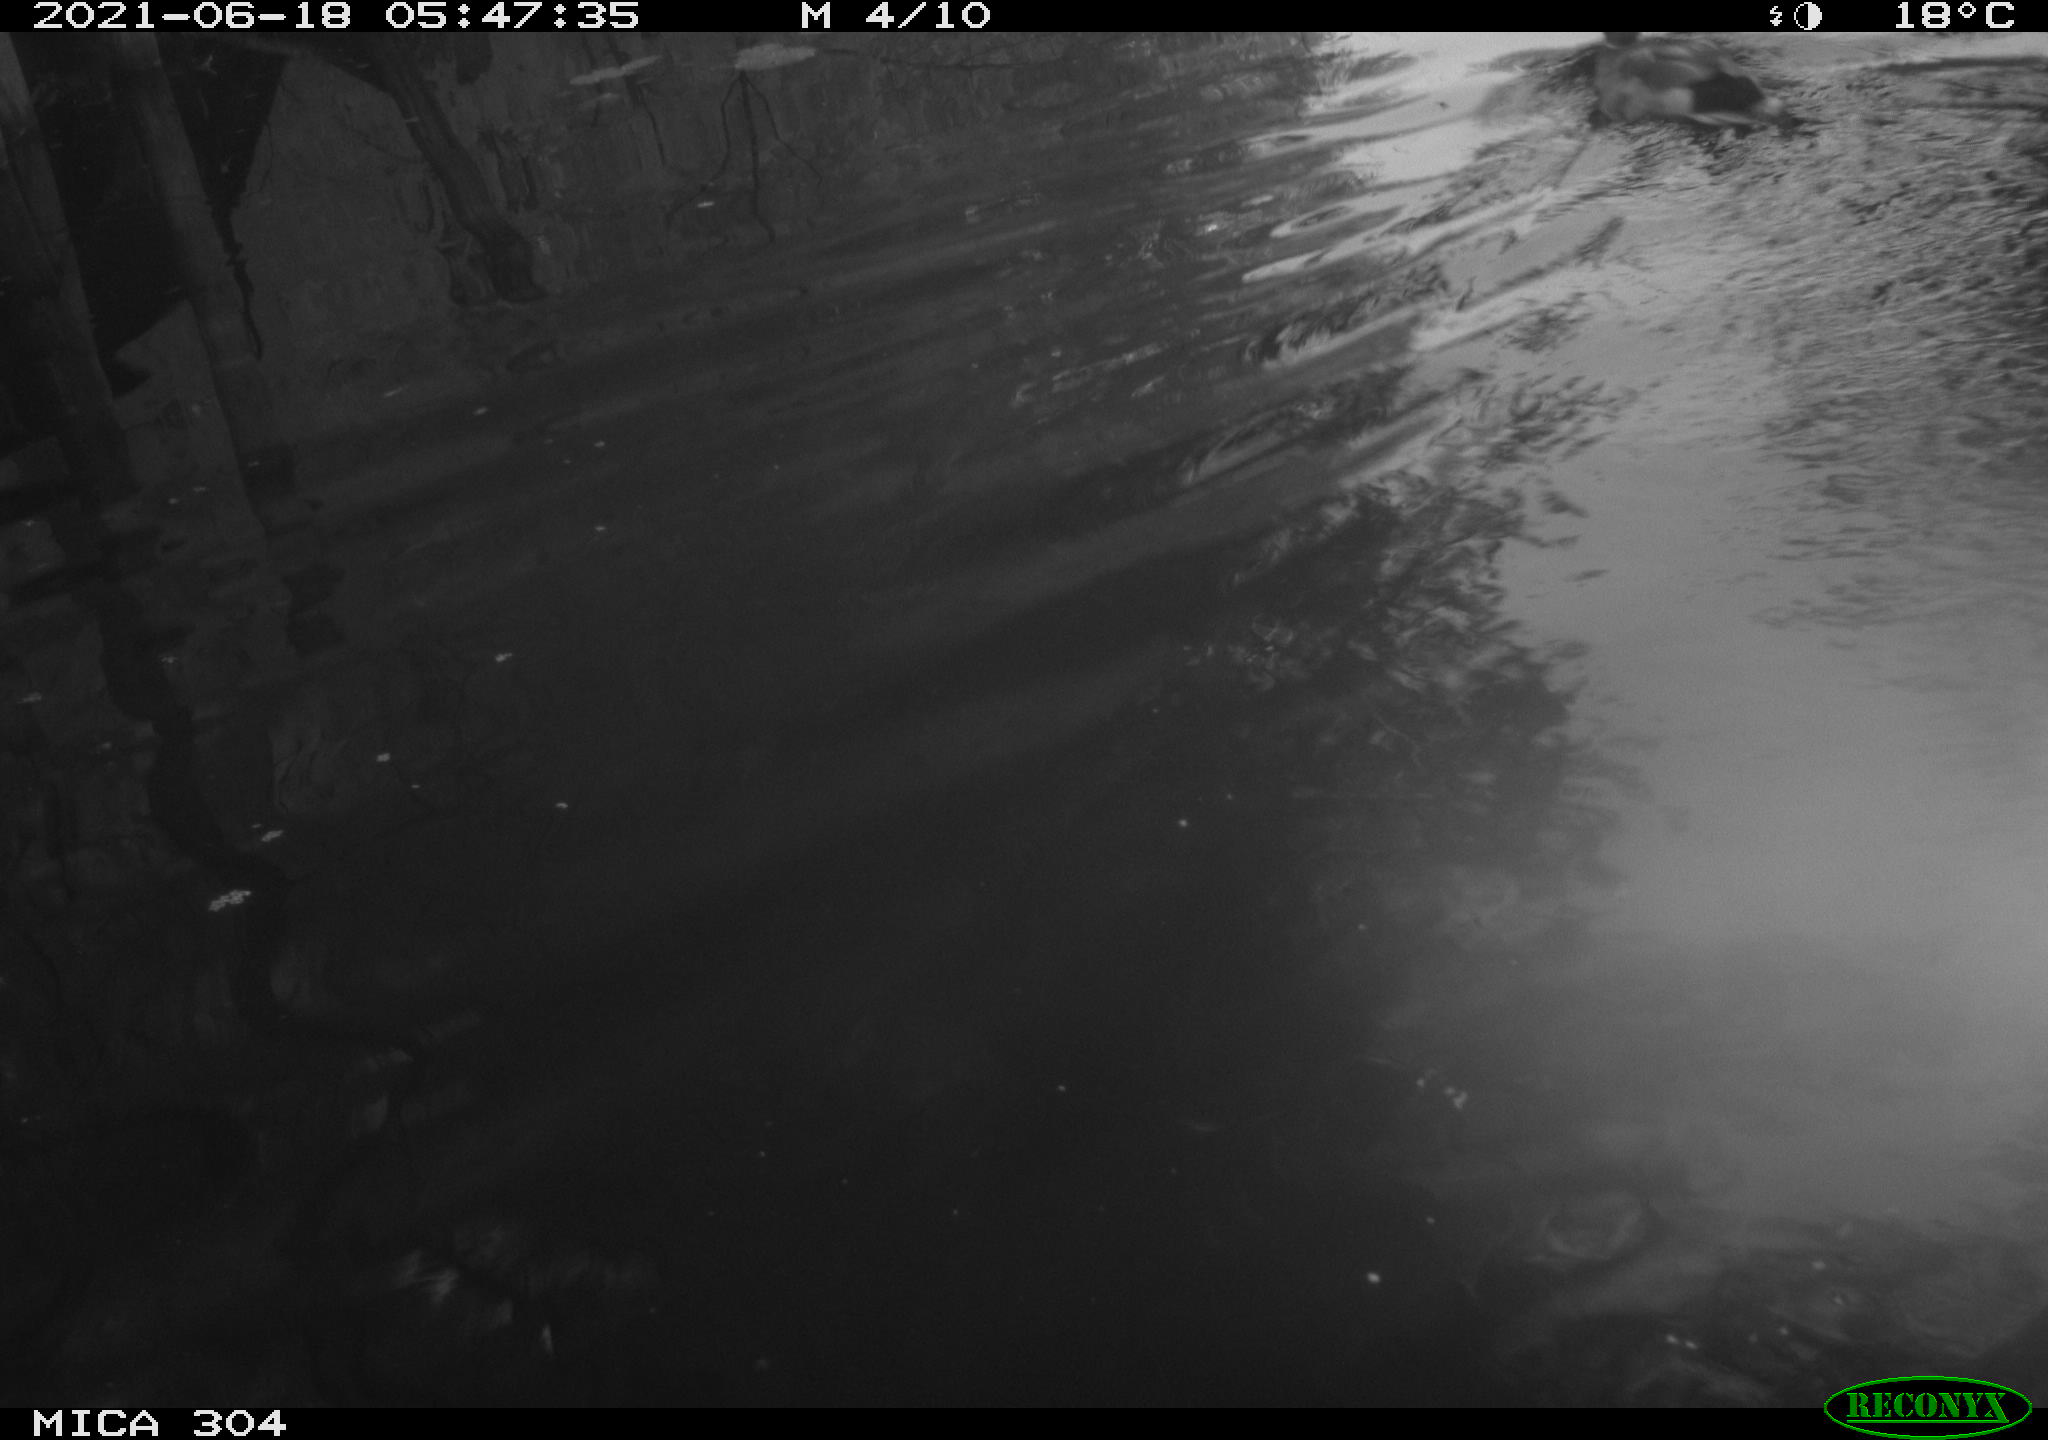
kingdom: Animalia
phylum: Chordata
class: Aves
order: Anseriformes
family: Anatidae
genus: Anas
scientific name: Anas platyrhynchos
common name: Mallard
